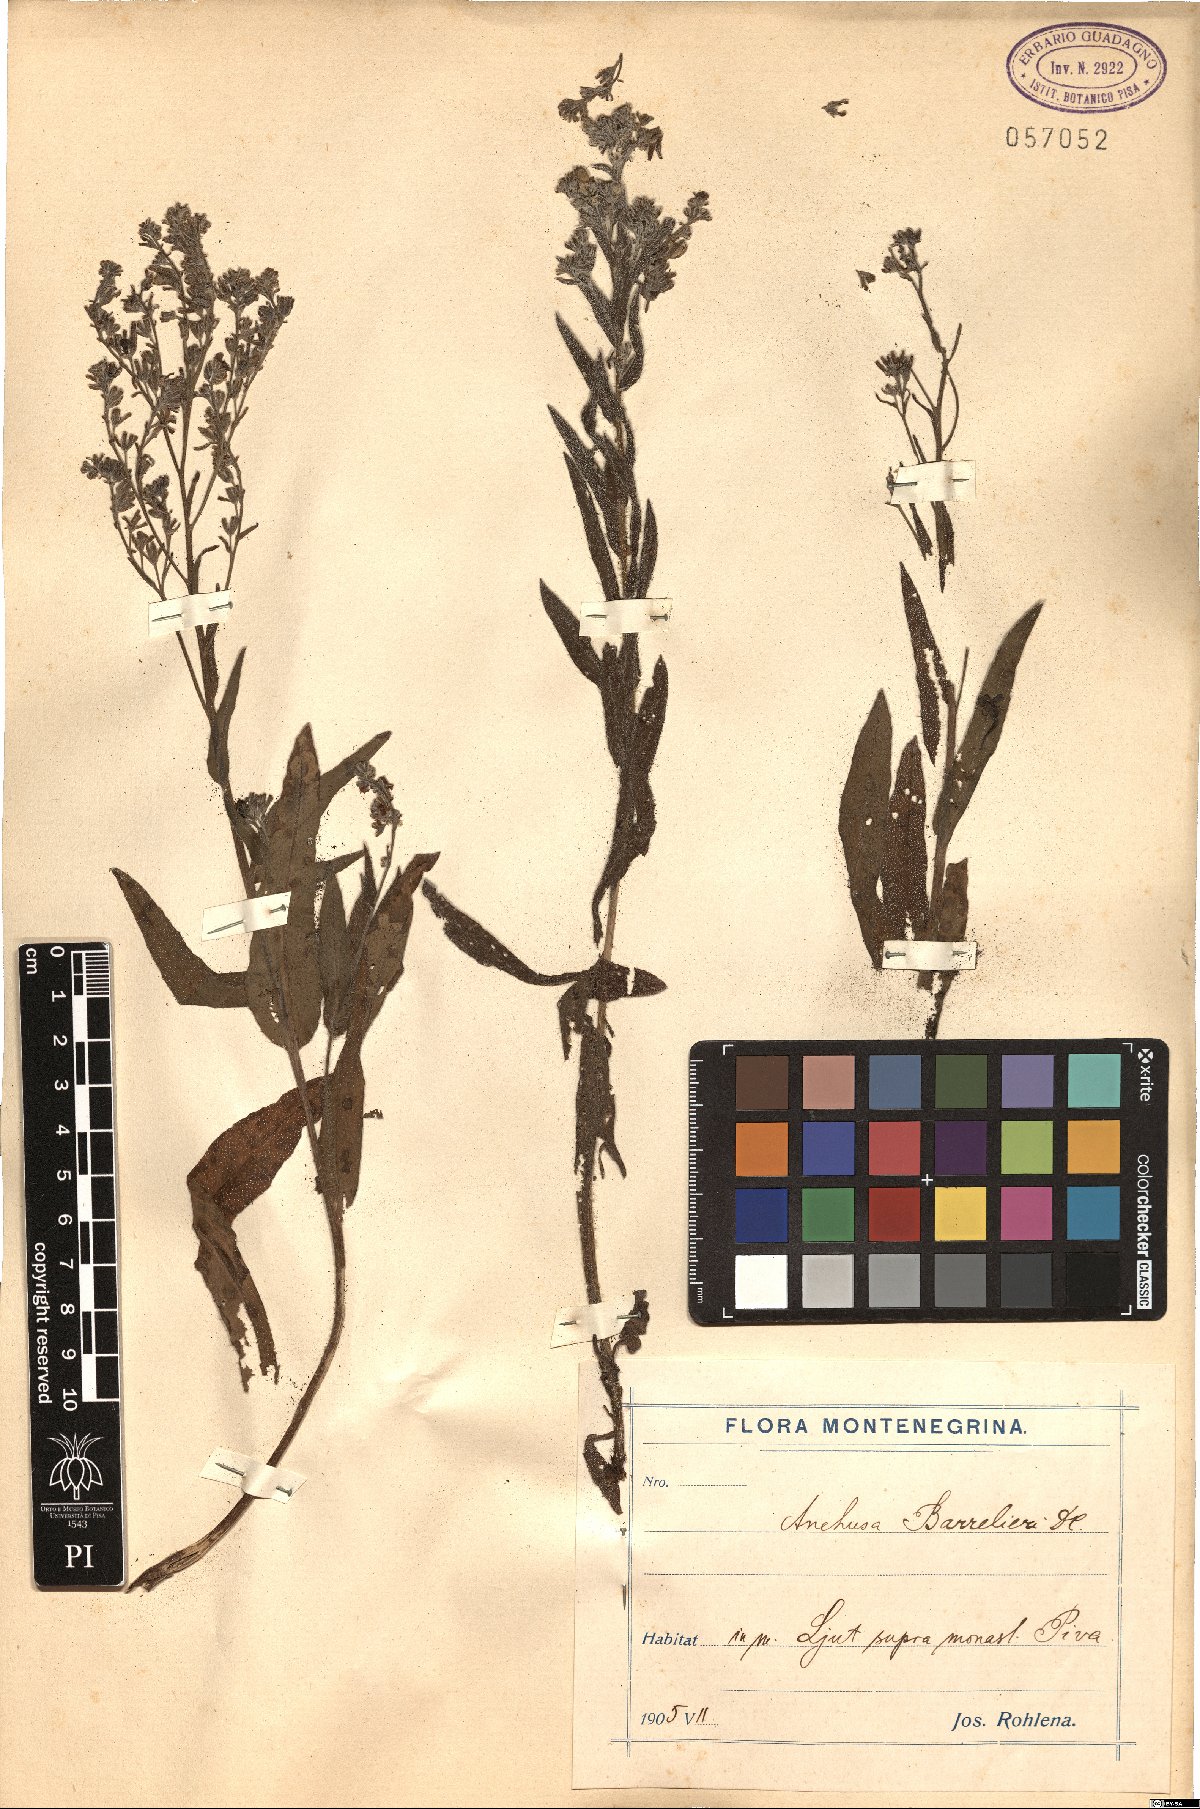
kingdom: Plantae
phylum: Tracheophyta
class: Magnoliopsida
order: Boraginales
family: Boraginaceae
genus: Cynoglottis
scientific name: Cynoglottis barrelieri
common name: False alkanet
